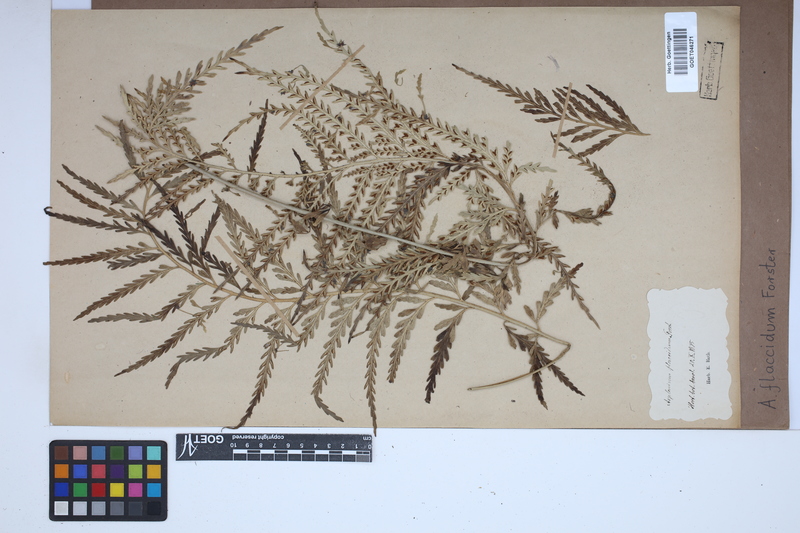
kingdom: Plantae
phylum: Tracheophyta
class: Polypodiopsida
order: Polypodiales
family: Aspleniaceae
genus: Asplenium
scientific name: Asplenium flaccidum
